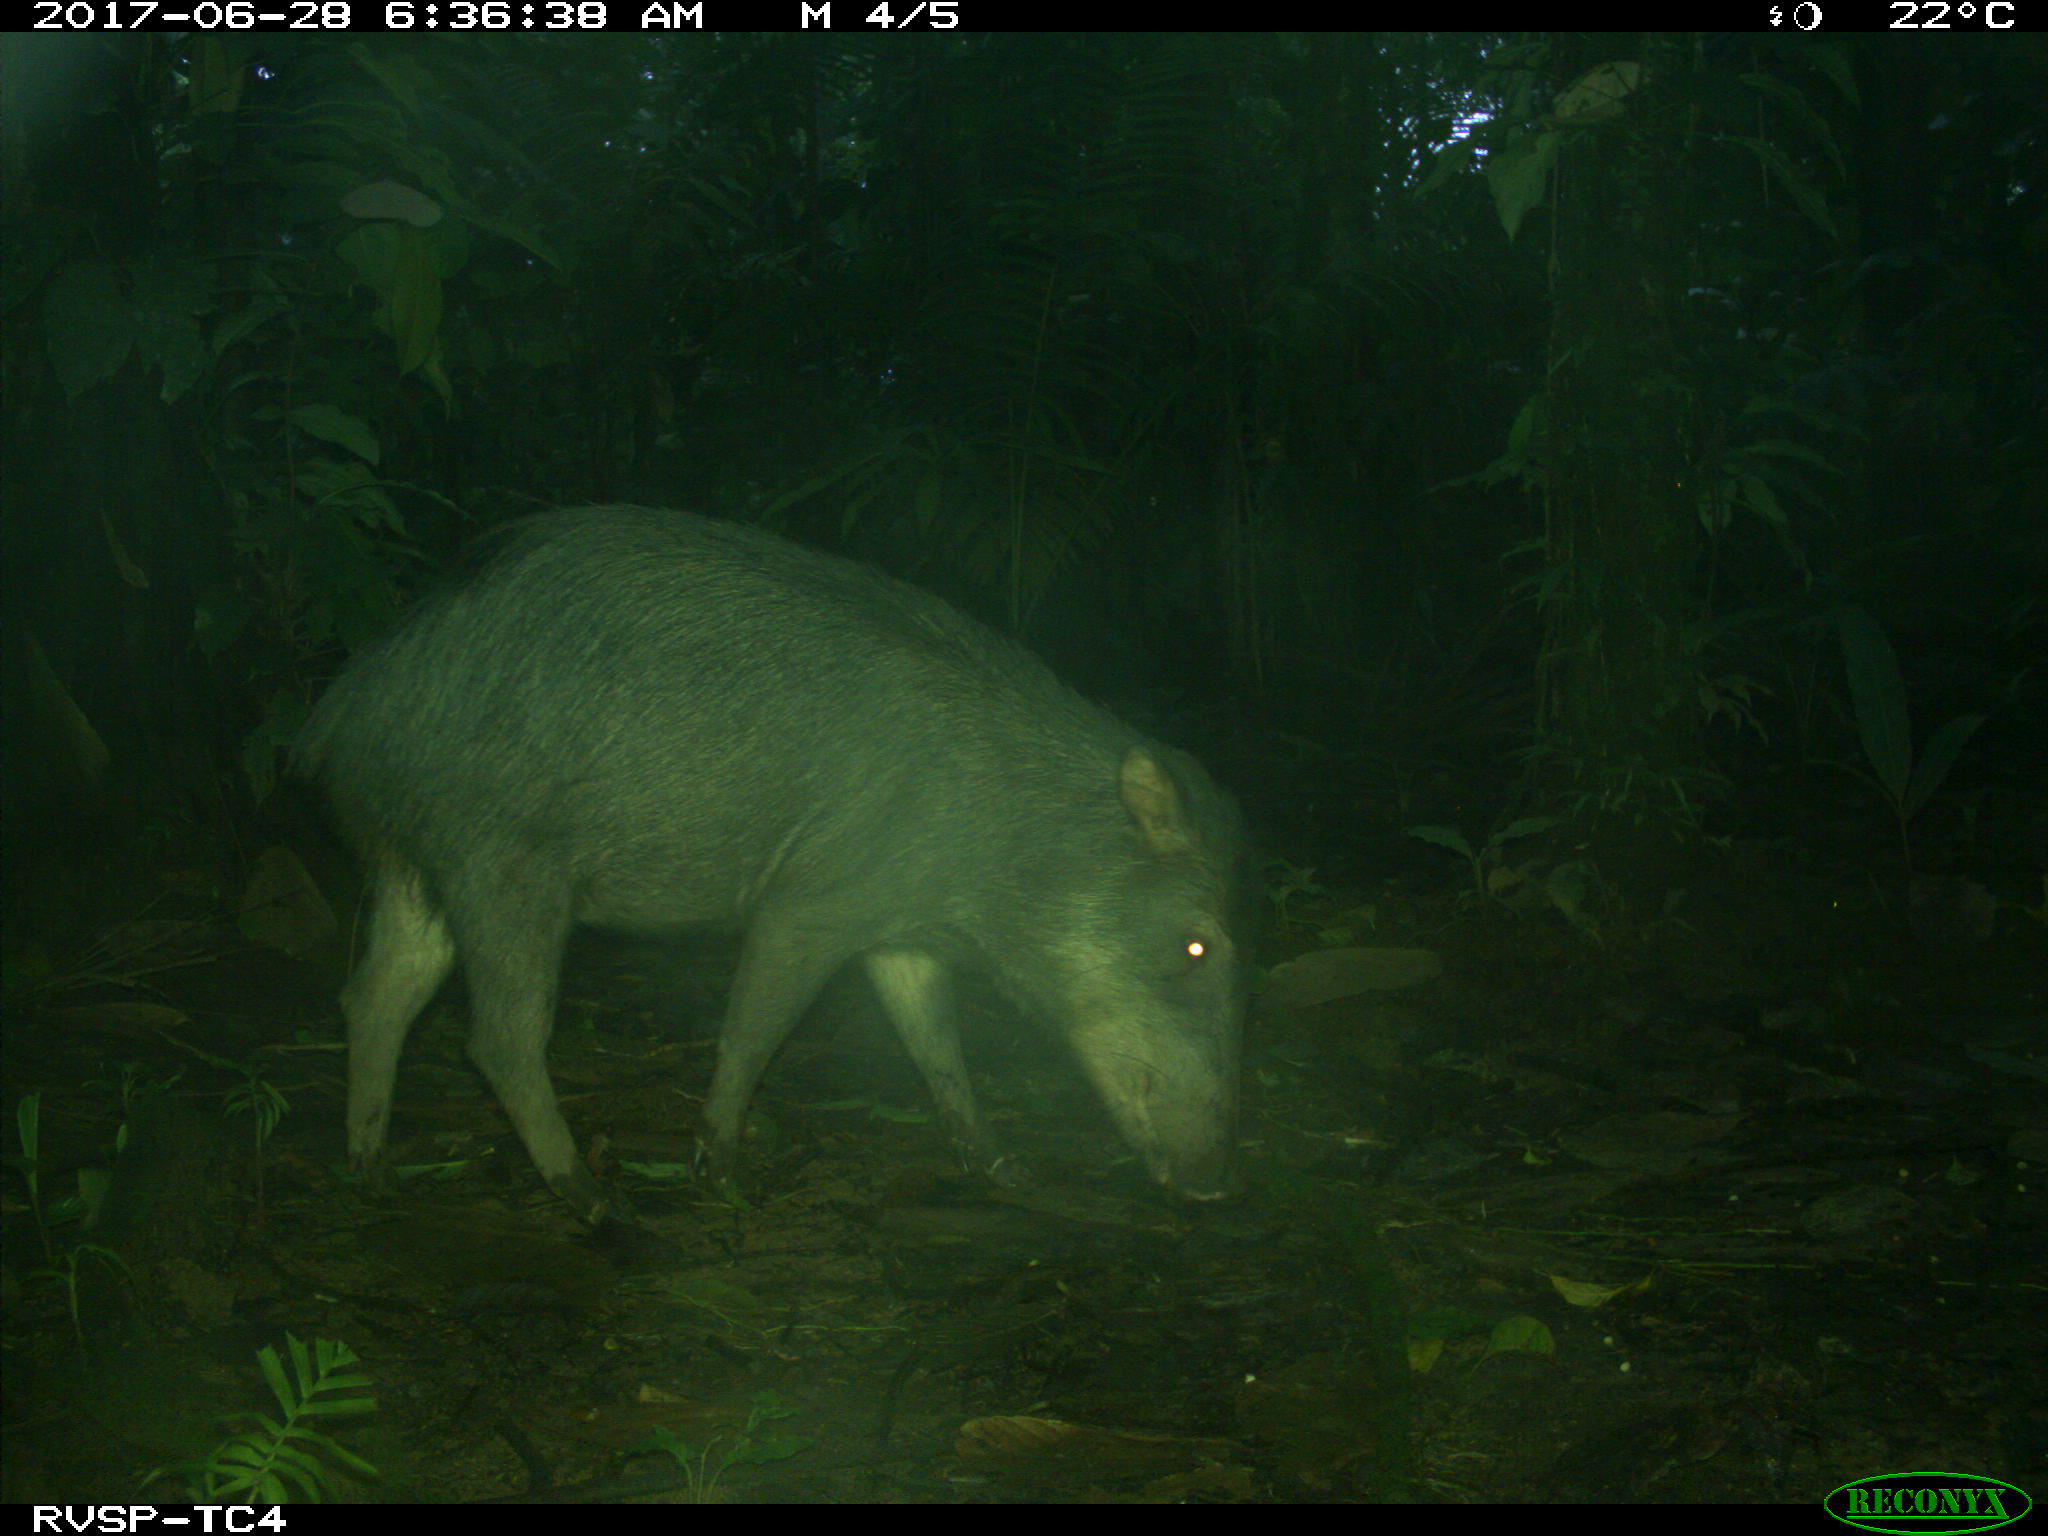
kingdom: Animalia
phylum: Chordata
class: Mammalia
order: Artiodactyla
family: Tayassuidae
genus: Tayassu
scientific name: Tayassu pecari
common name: White-lipped peccary
